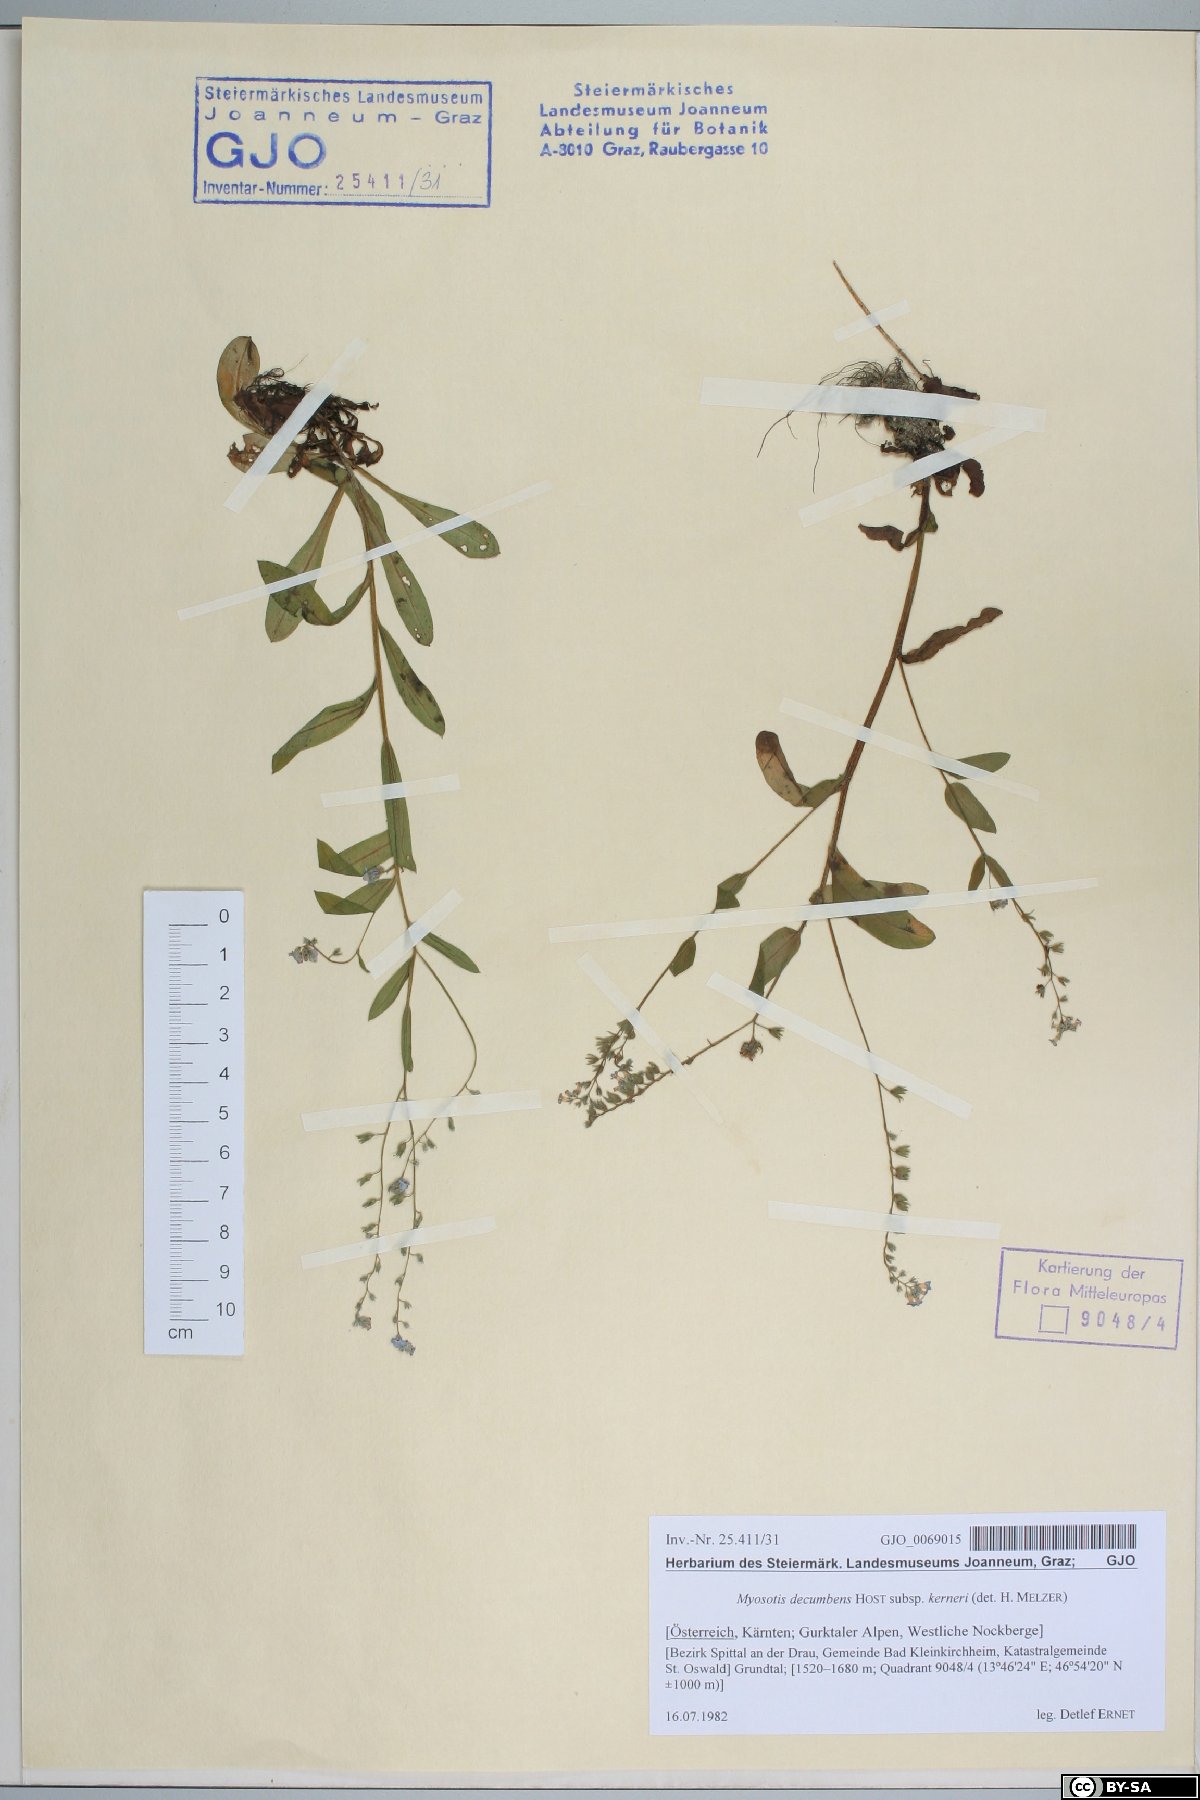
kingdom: Plantae
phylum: Tracheophyta
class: Magnoliopsida
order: Boraginales
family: Boraginaceae
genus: Myosotis
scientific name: Myosotis decumbens
